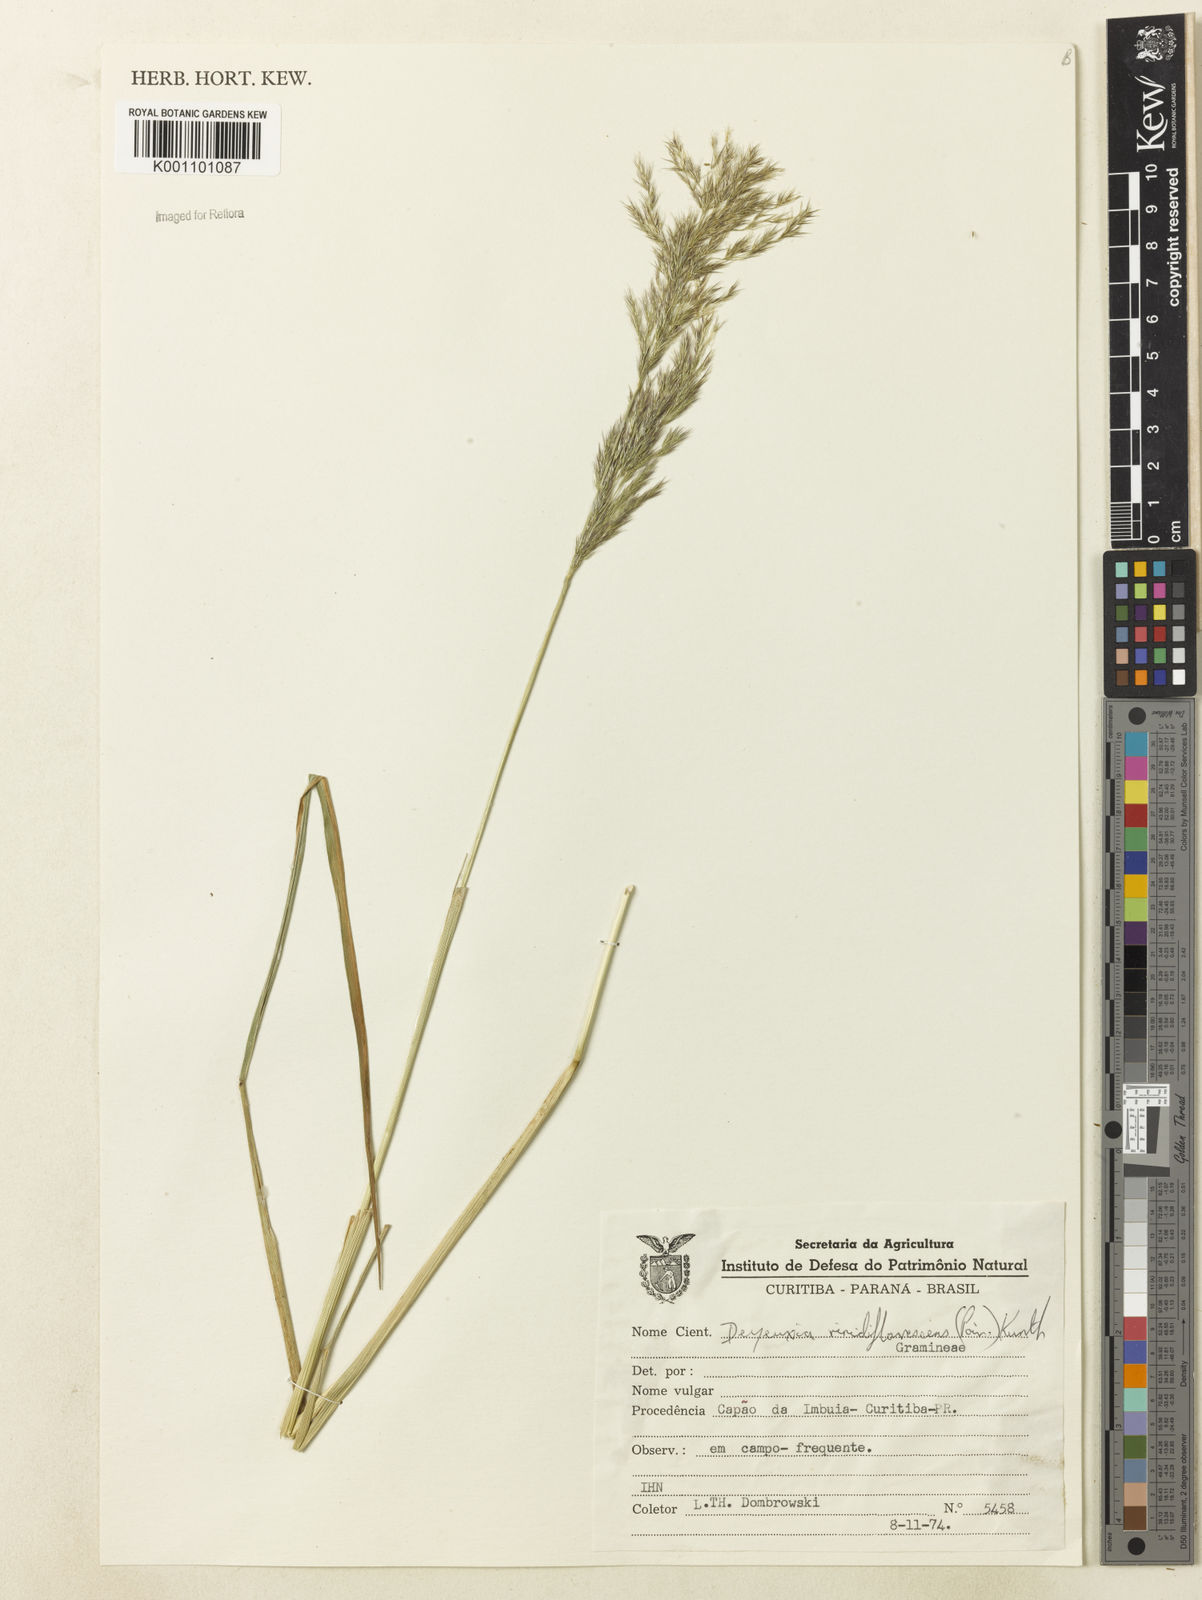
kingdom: Plantae
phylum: Tracheophyta
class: Liliopsida
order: Poales
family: Poaceae
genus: Cinnagrostis
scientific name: Cinnagrostis viridiflavescens
